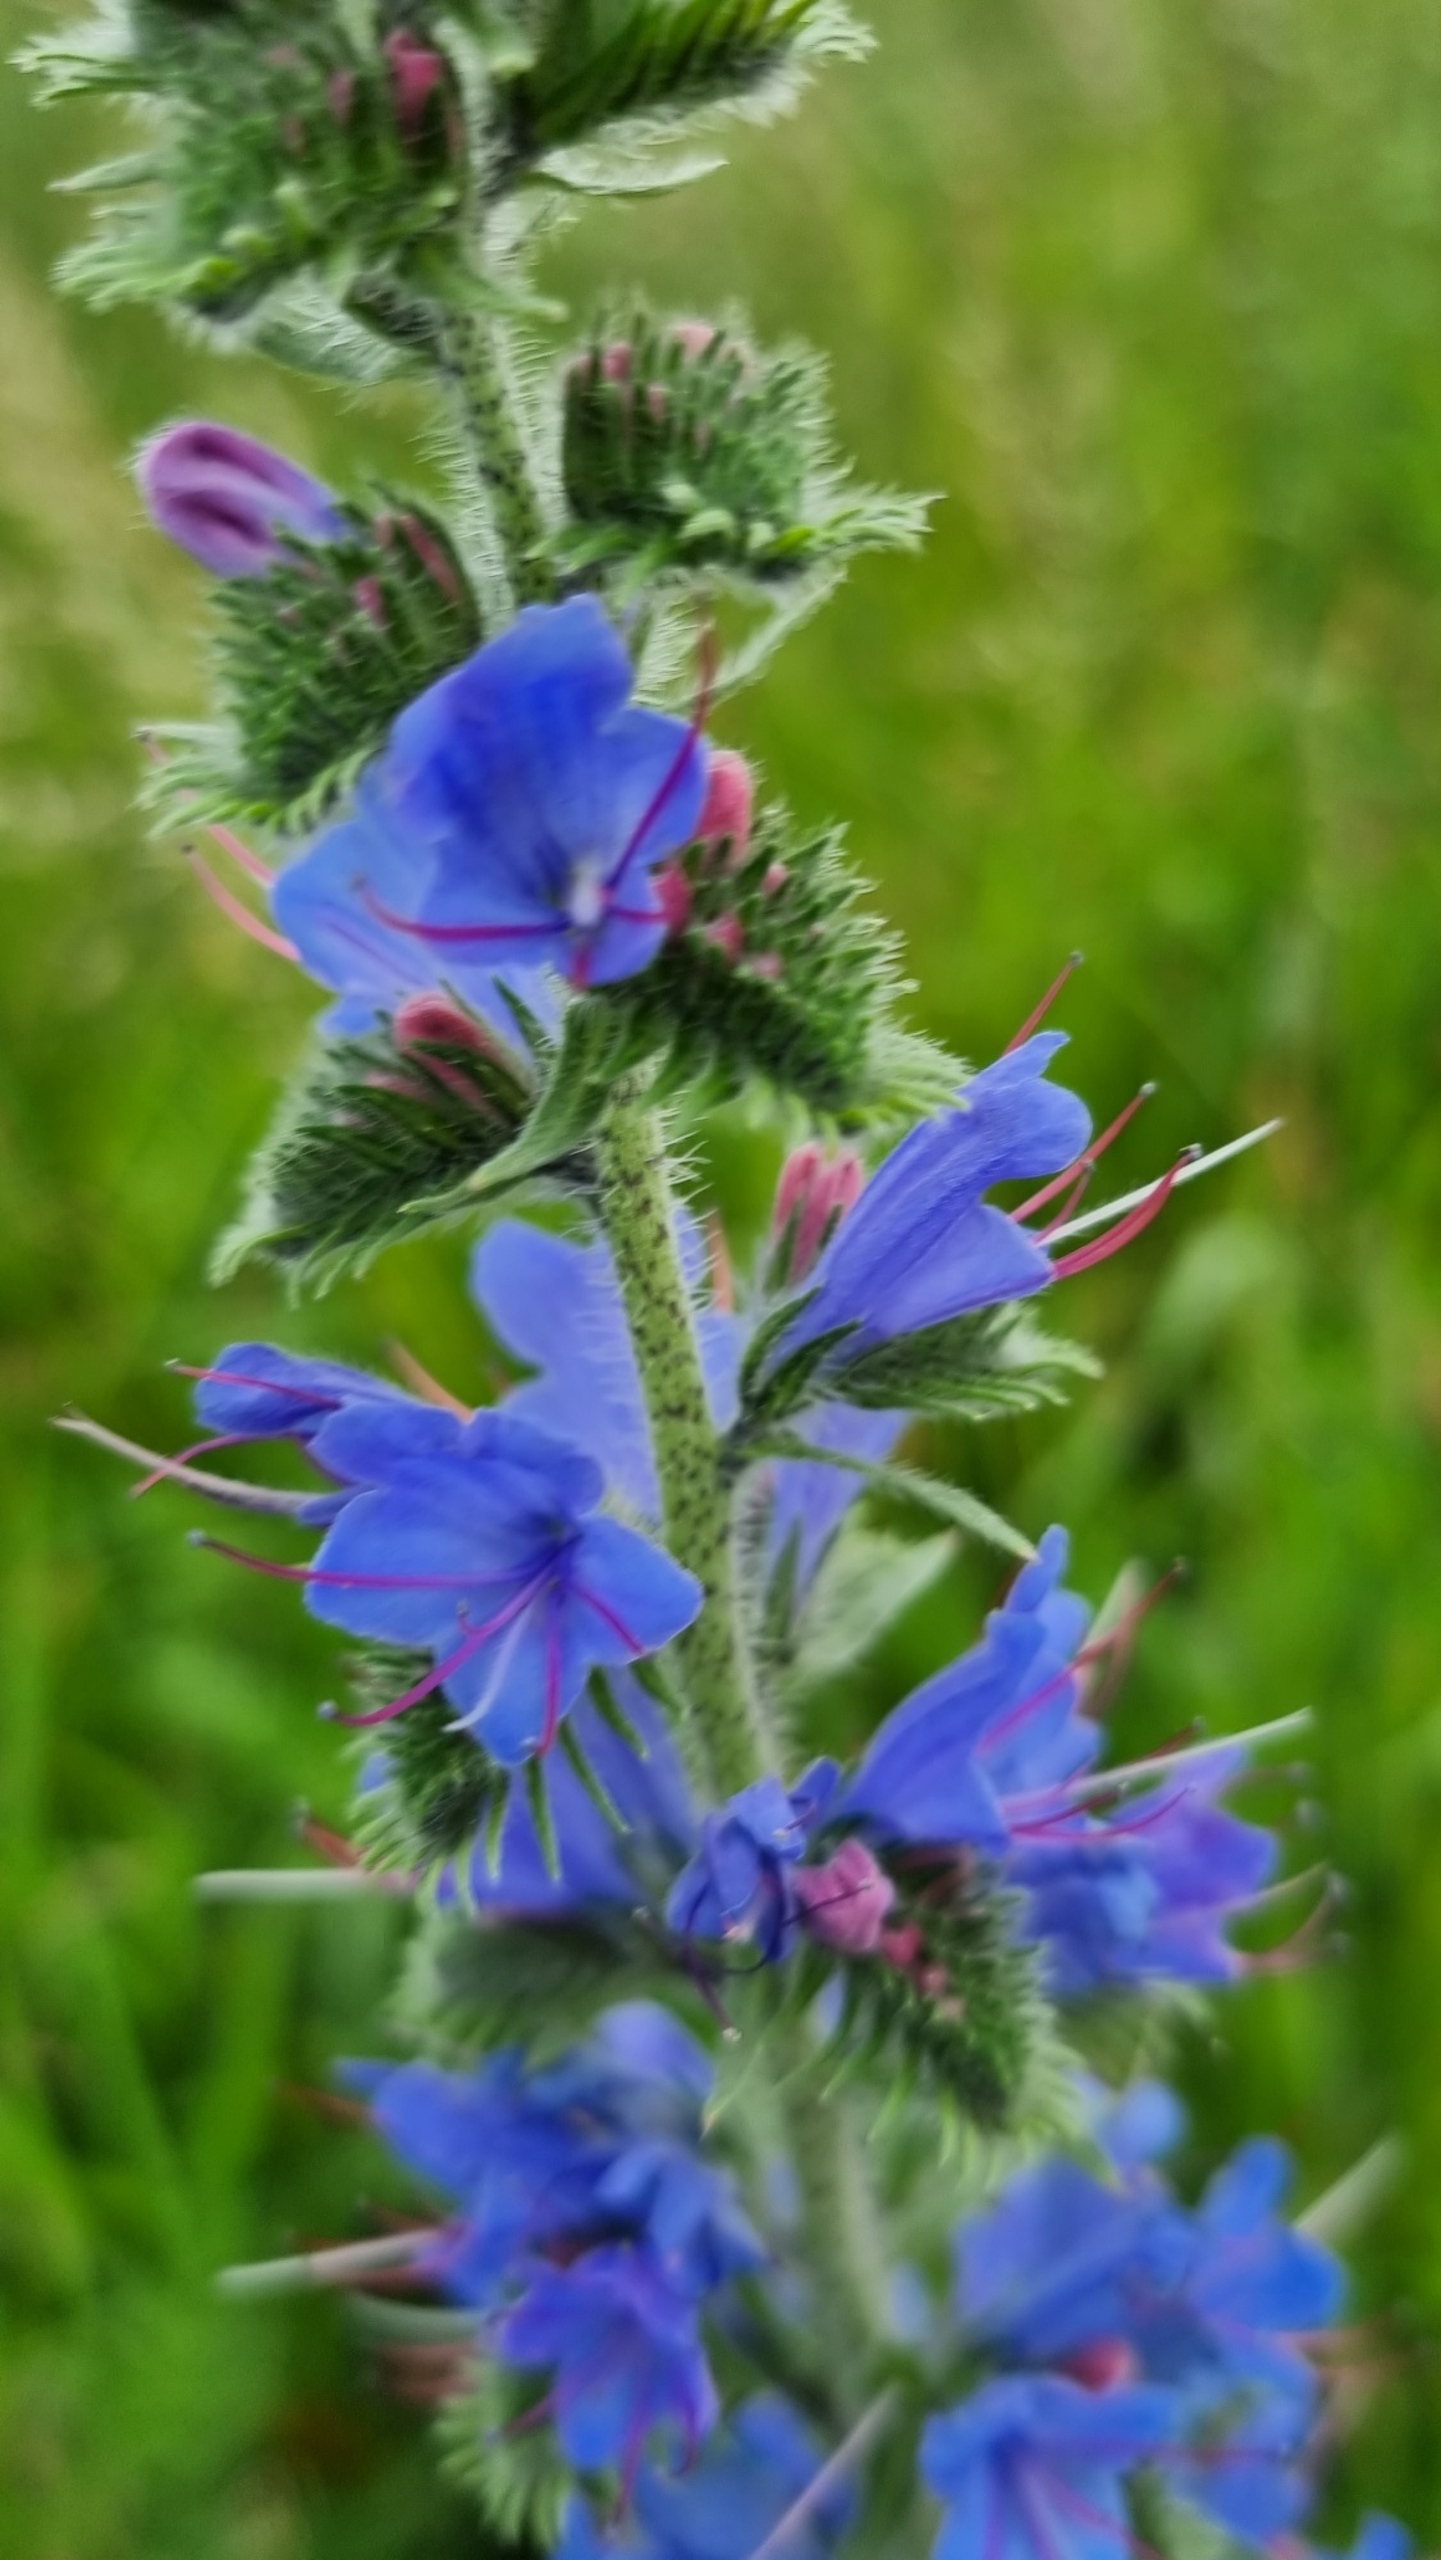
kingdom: Plantae
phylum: Tracheophyta
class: Magnoliopsida
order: Boraginales
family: Boraginaceae
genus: Echium
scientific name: Echium vulgare
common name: Slangehoved
